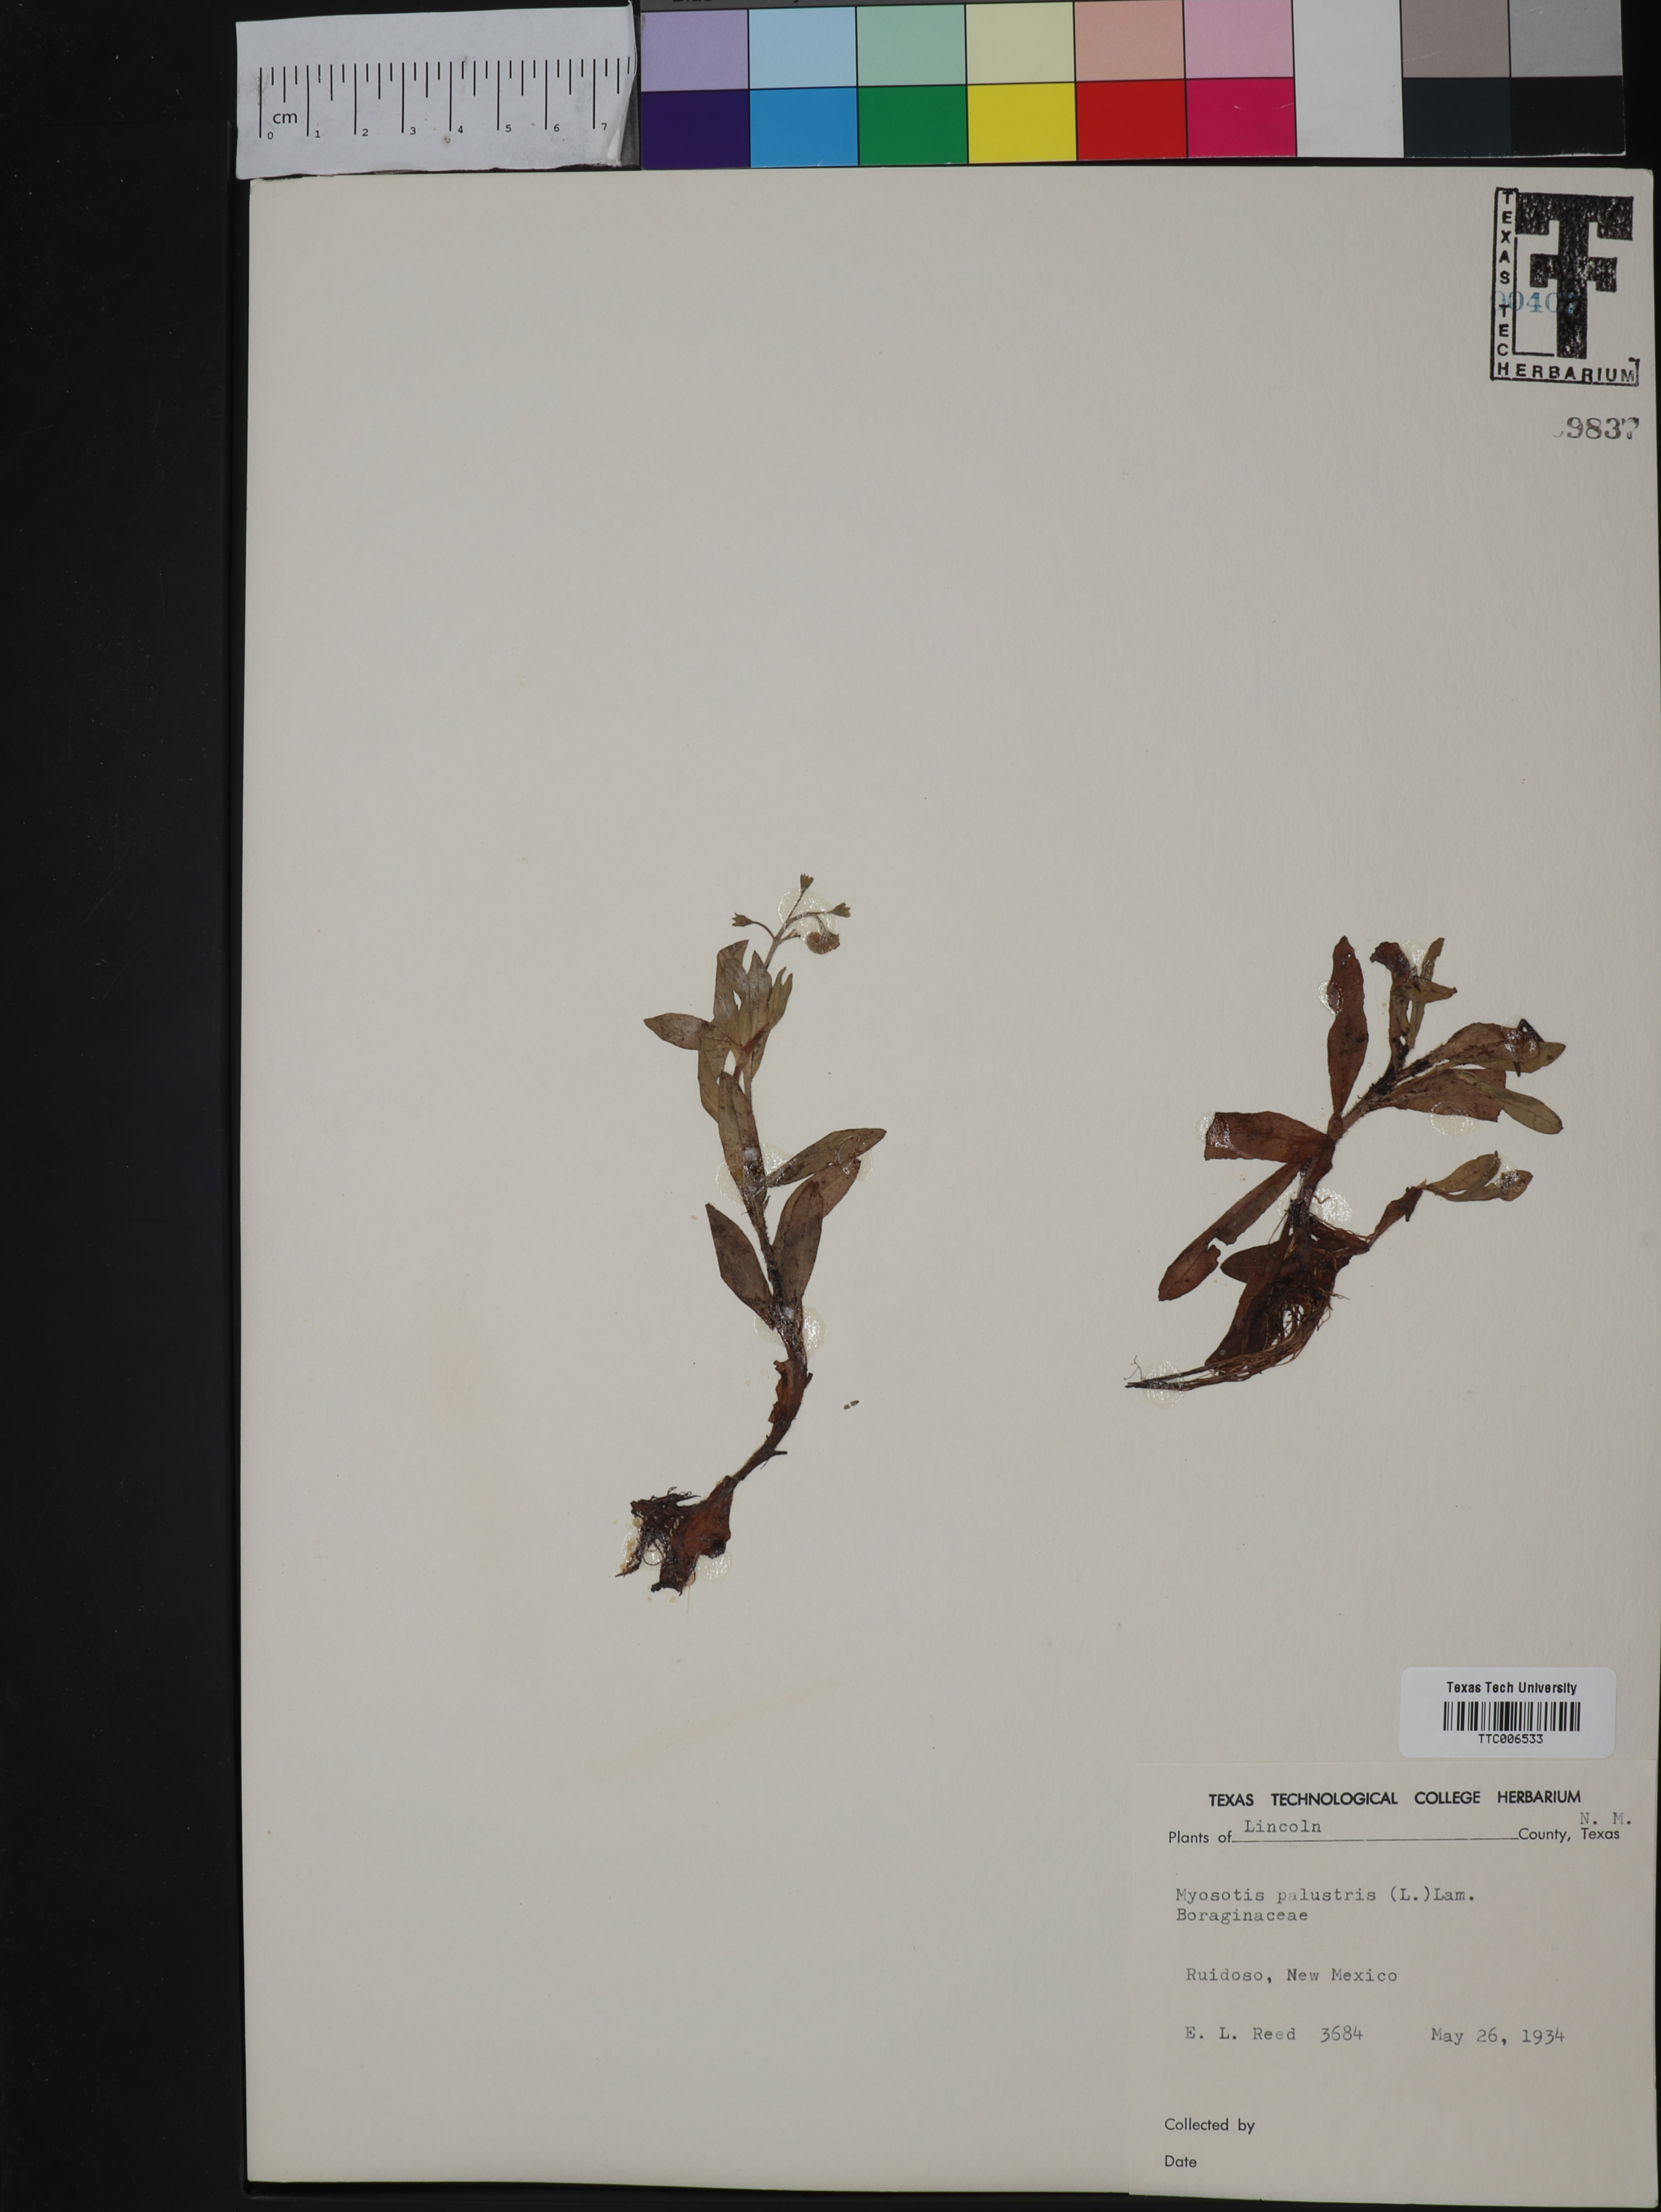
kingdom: Plantae
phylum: Tracheophyta
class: Magnoliopsida
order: Boraginales
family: Boraginaceae
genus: Myosotis
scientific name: Myosotis scorpioides
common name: Water forget-me-not
